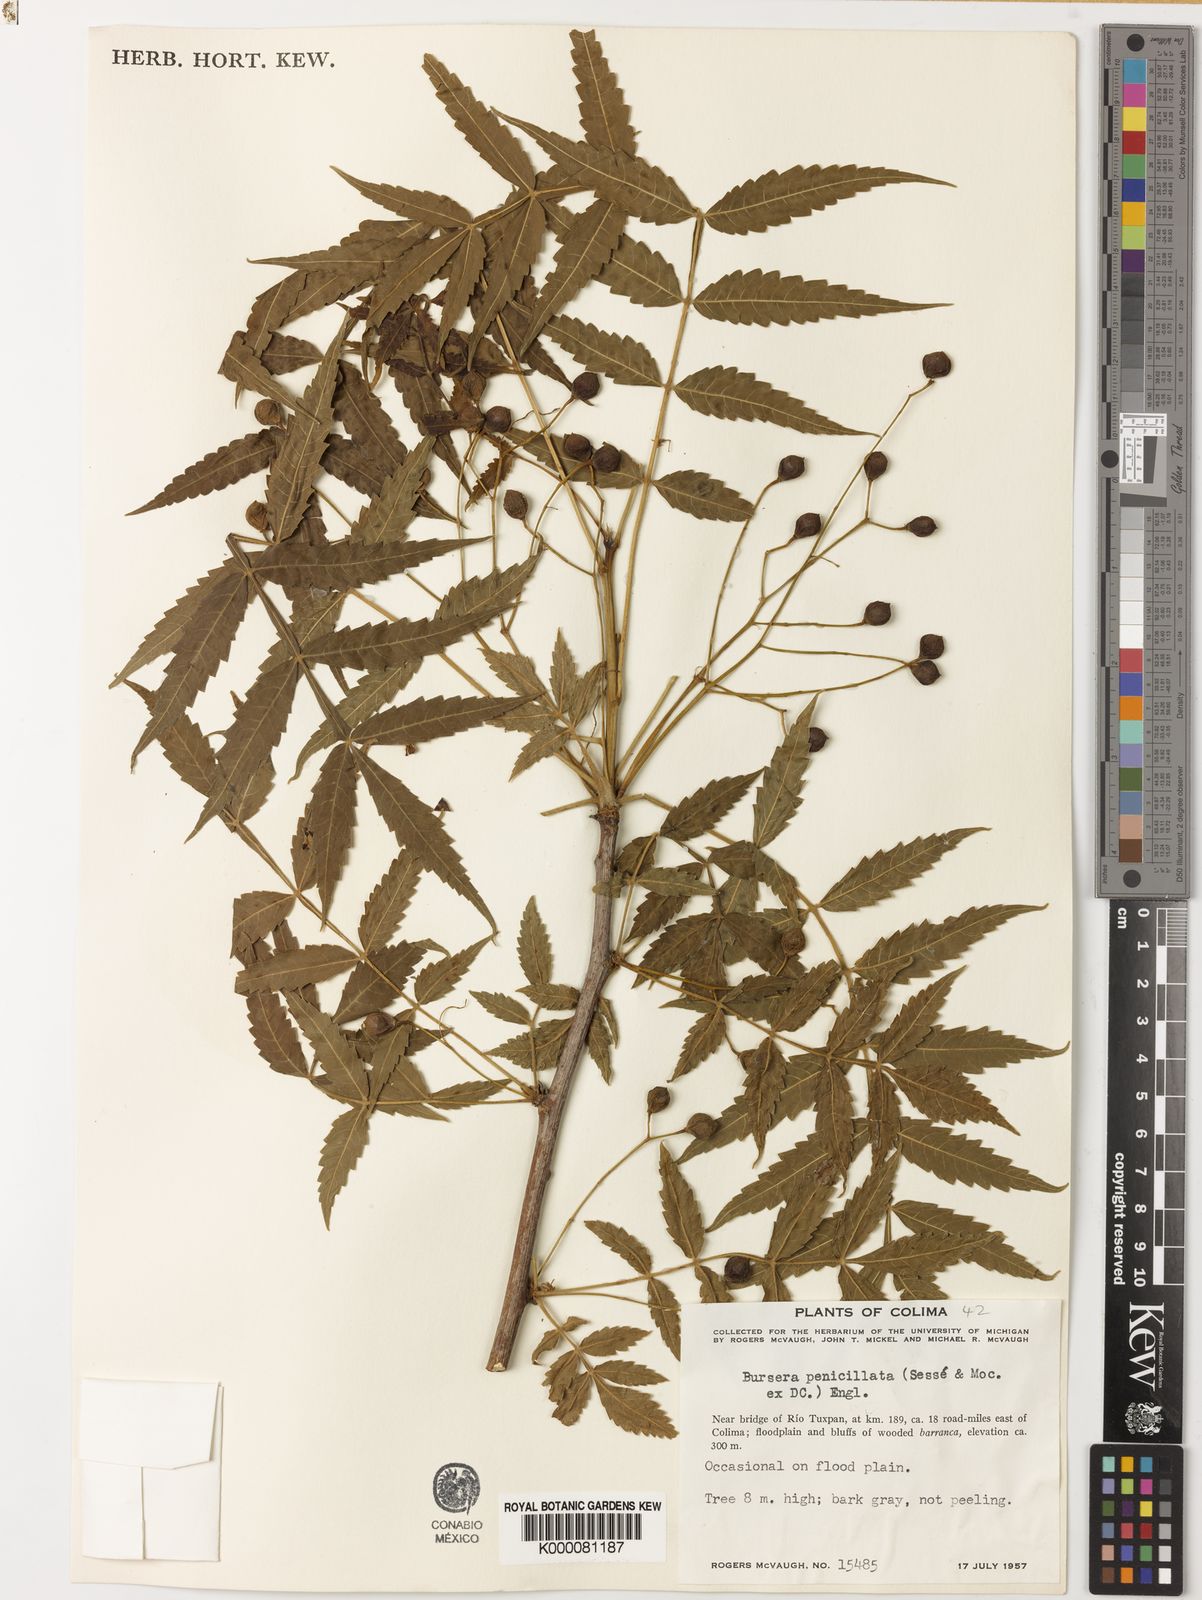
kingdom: Plantae
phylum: Tracheophyta
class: Magnoliopsida
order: Sapindales
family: Burseraceae
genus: Bursera
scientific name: Bursera penicillata
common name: Indian-lavender
